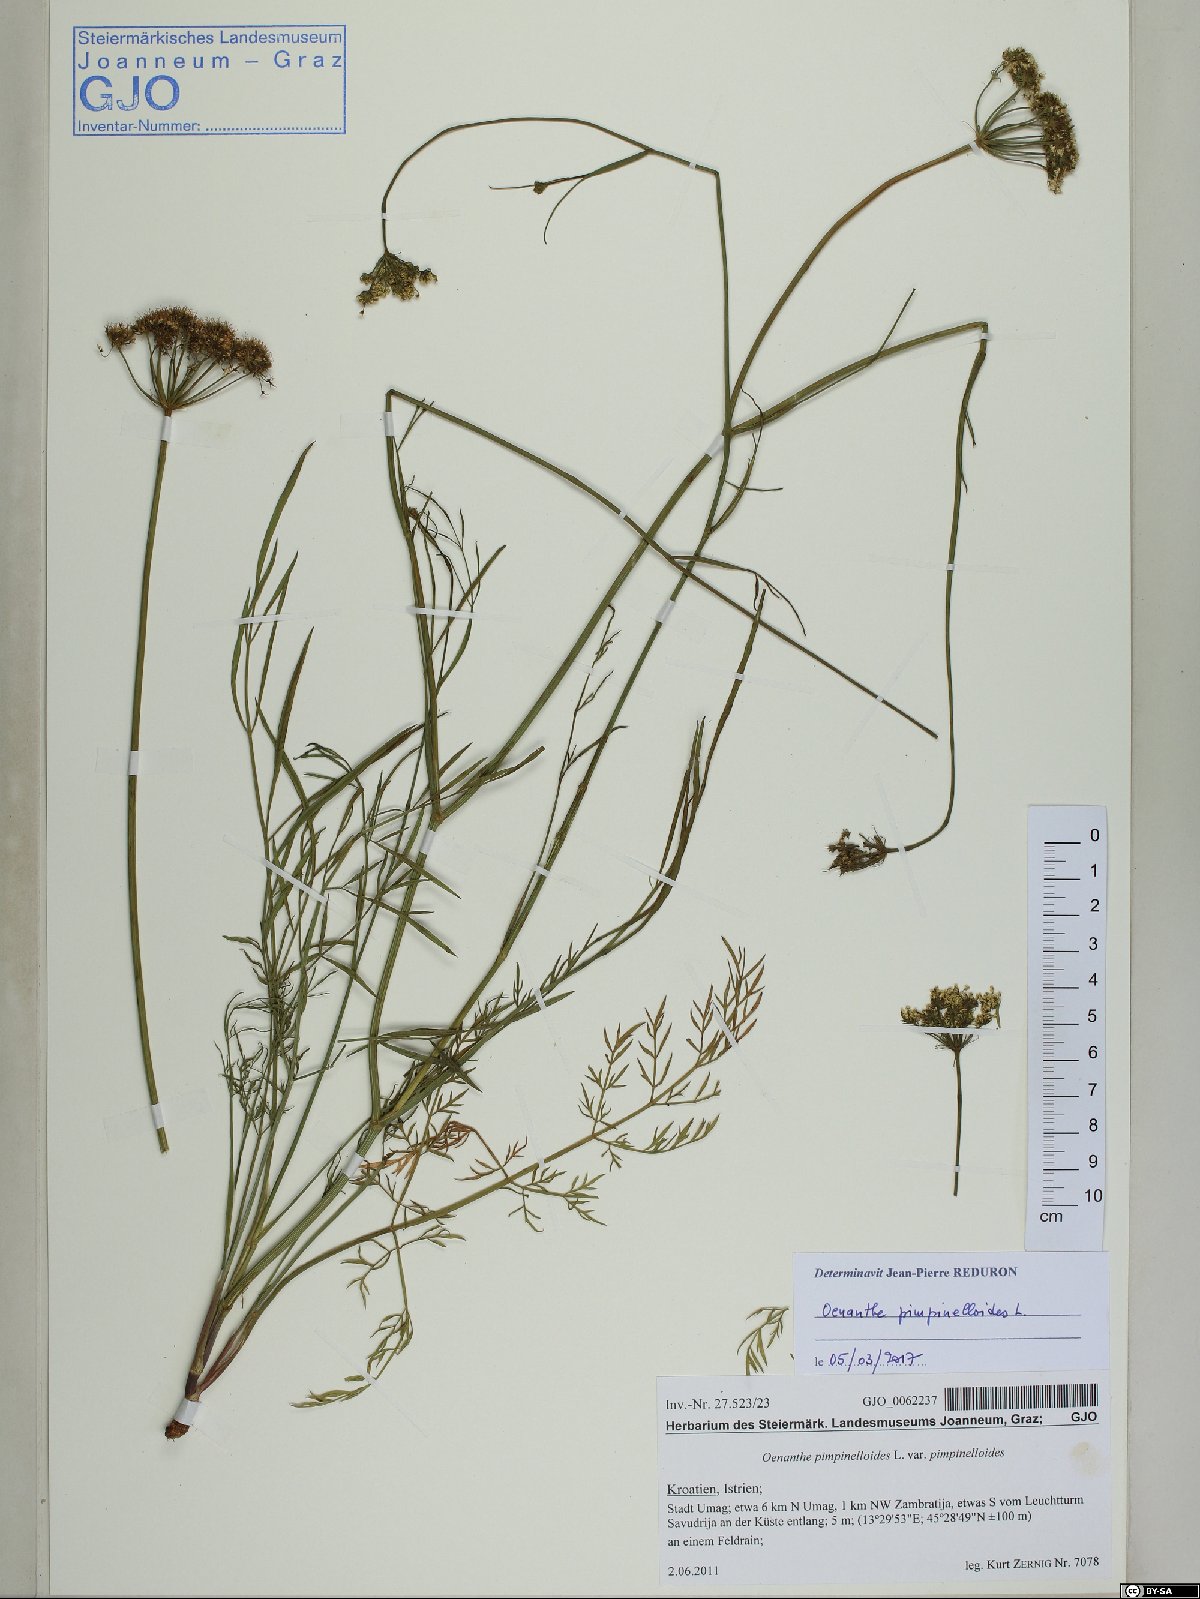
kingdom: Plantae
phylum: Tracheophyta
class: Magnoliopsida
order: Apiales
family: Apiaceae
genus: Oenanthe
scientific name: Oenanthe pimpinelloides
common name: Corky-fruited water-dropwort
